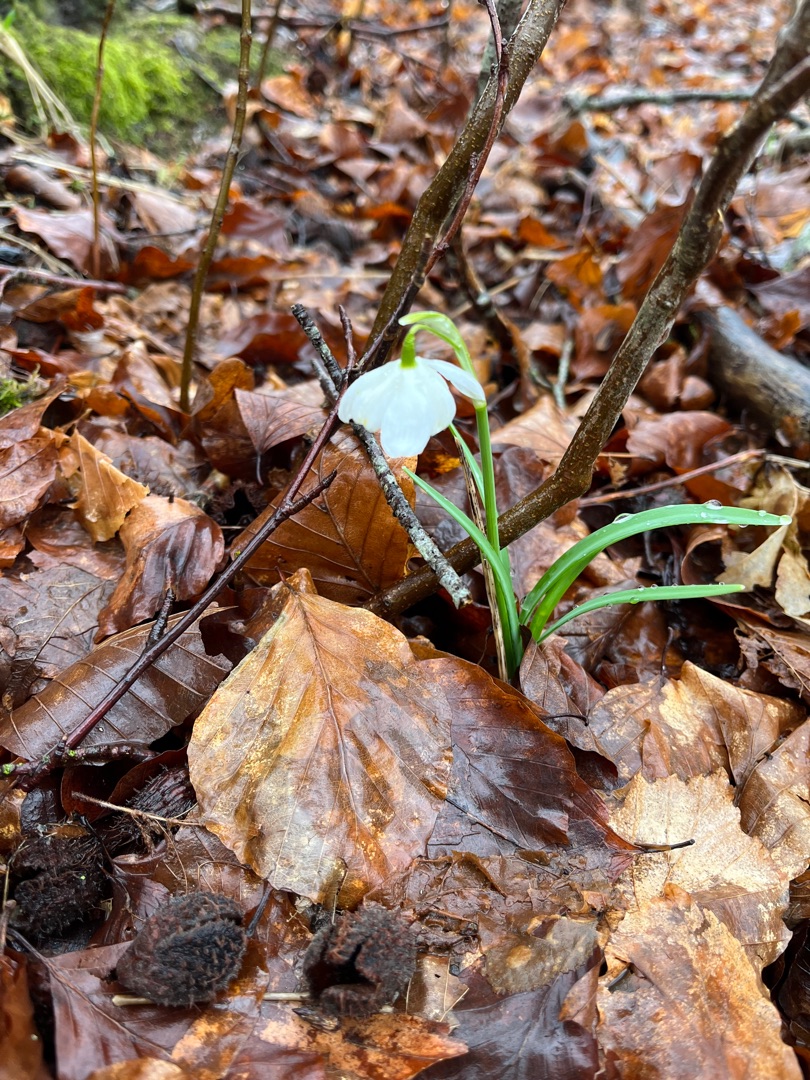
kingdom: Plantae
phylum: Tracheophyta
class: Liliopsida
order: Asparagales
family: Amaryllidaceae
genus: Galanthus
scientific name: Galanthus nivalis
